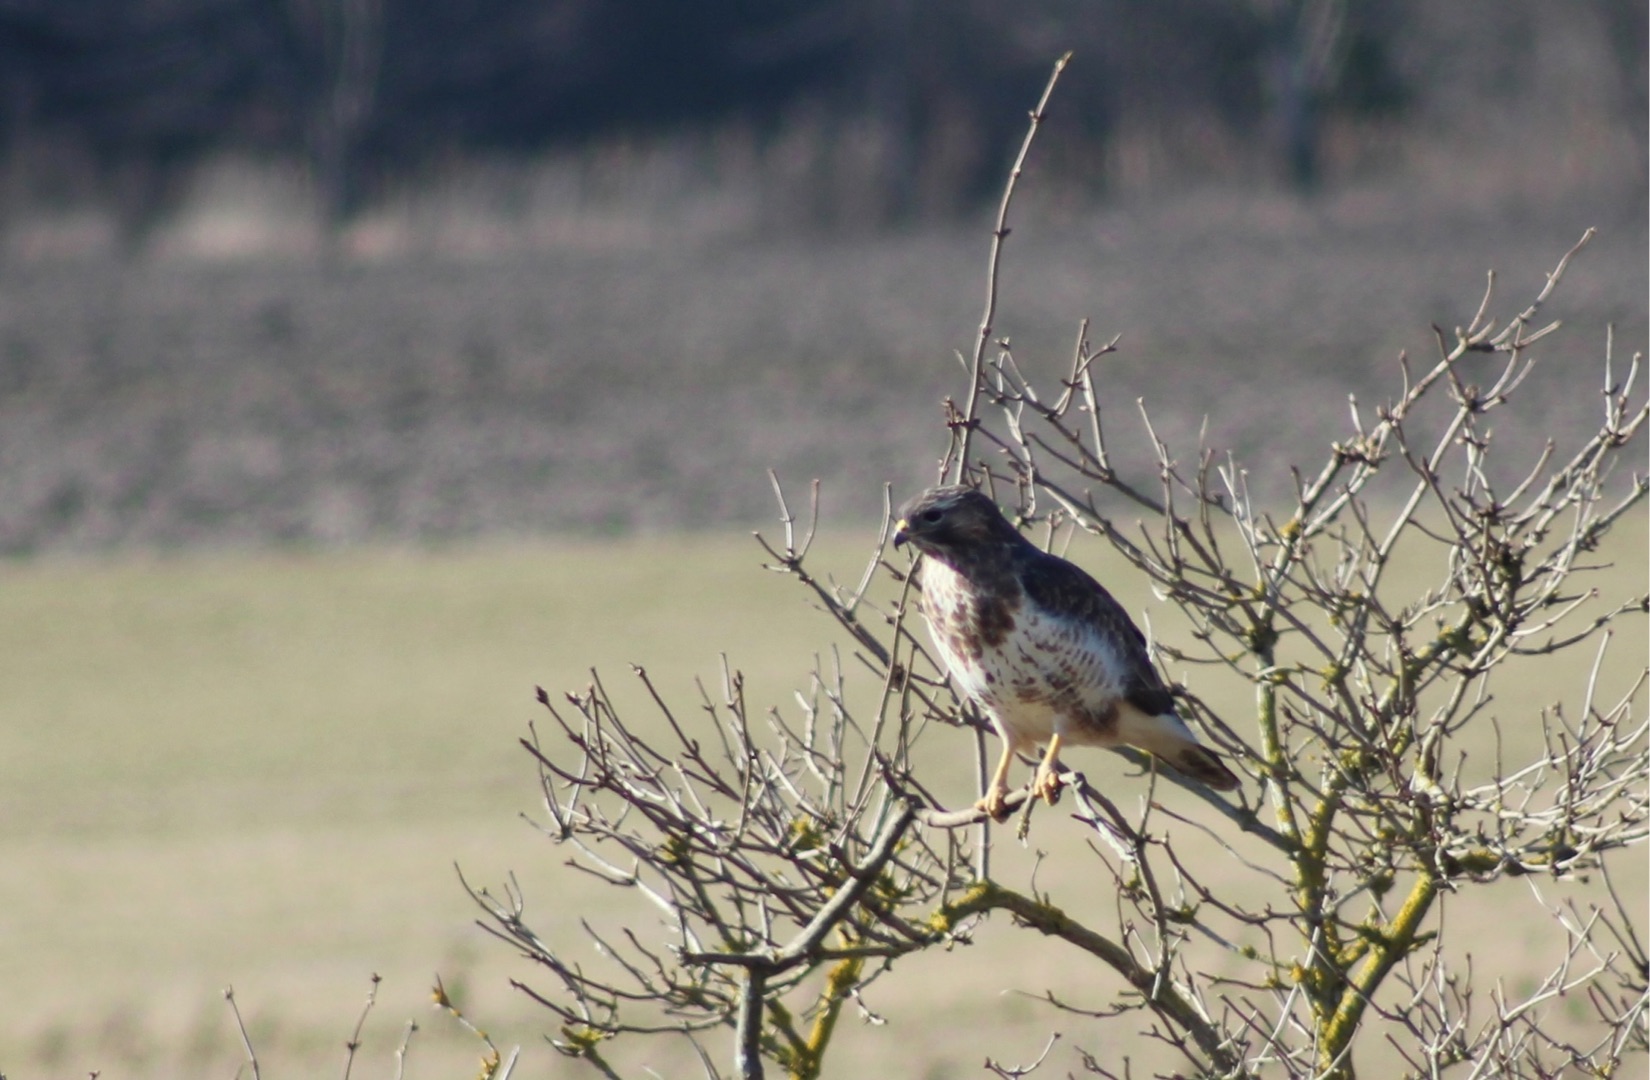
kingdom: Animalia
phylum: Chordata
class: Aves
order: Accipitriformes
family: Accipitridae
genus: Buteo
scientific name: Buteo buteo
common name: Musvåge
